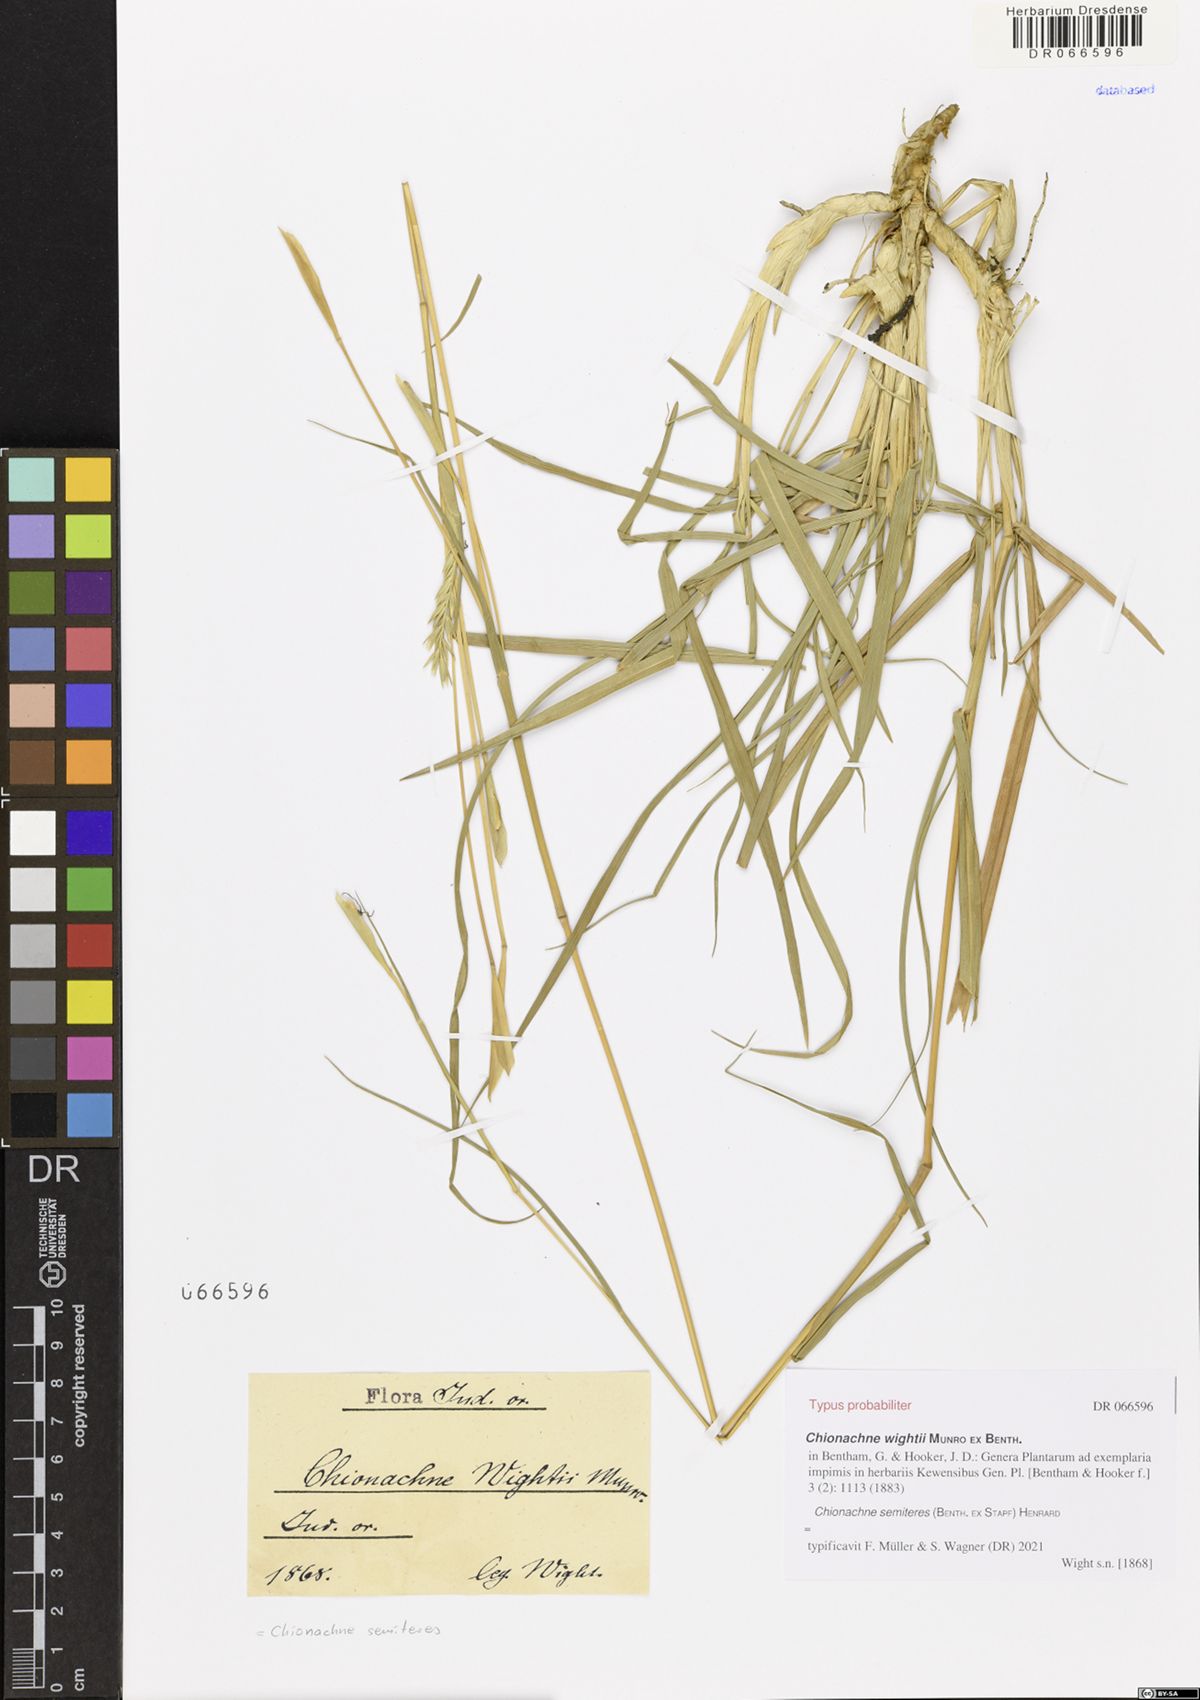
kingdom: Plantae
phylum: Tracheophyta
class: Liliopsida
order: Poales
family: Poaceae
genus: Polytoca
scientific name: Polytoca semiteres
